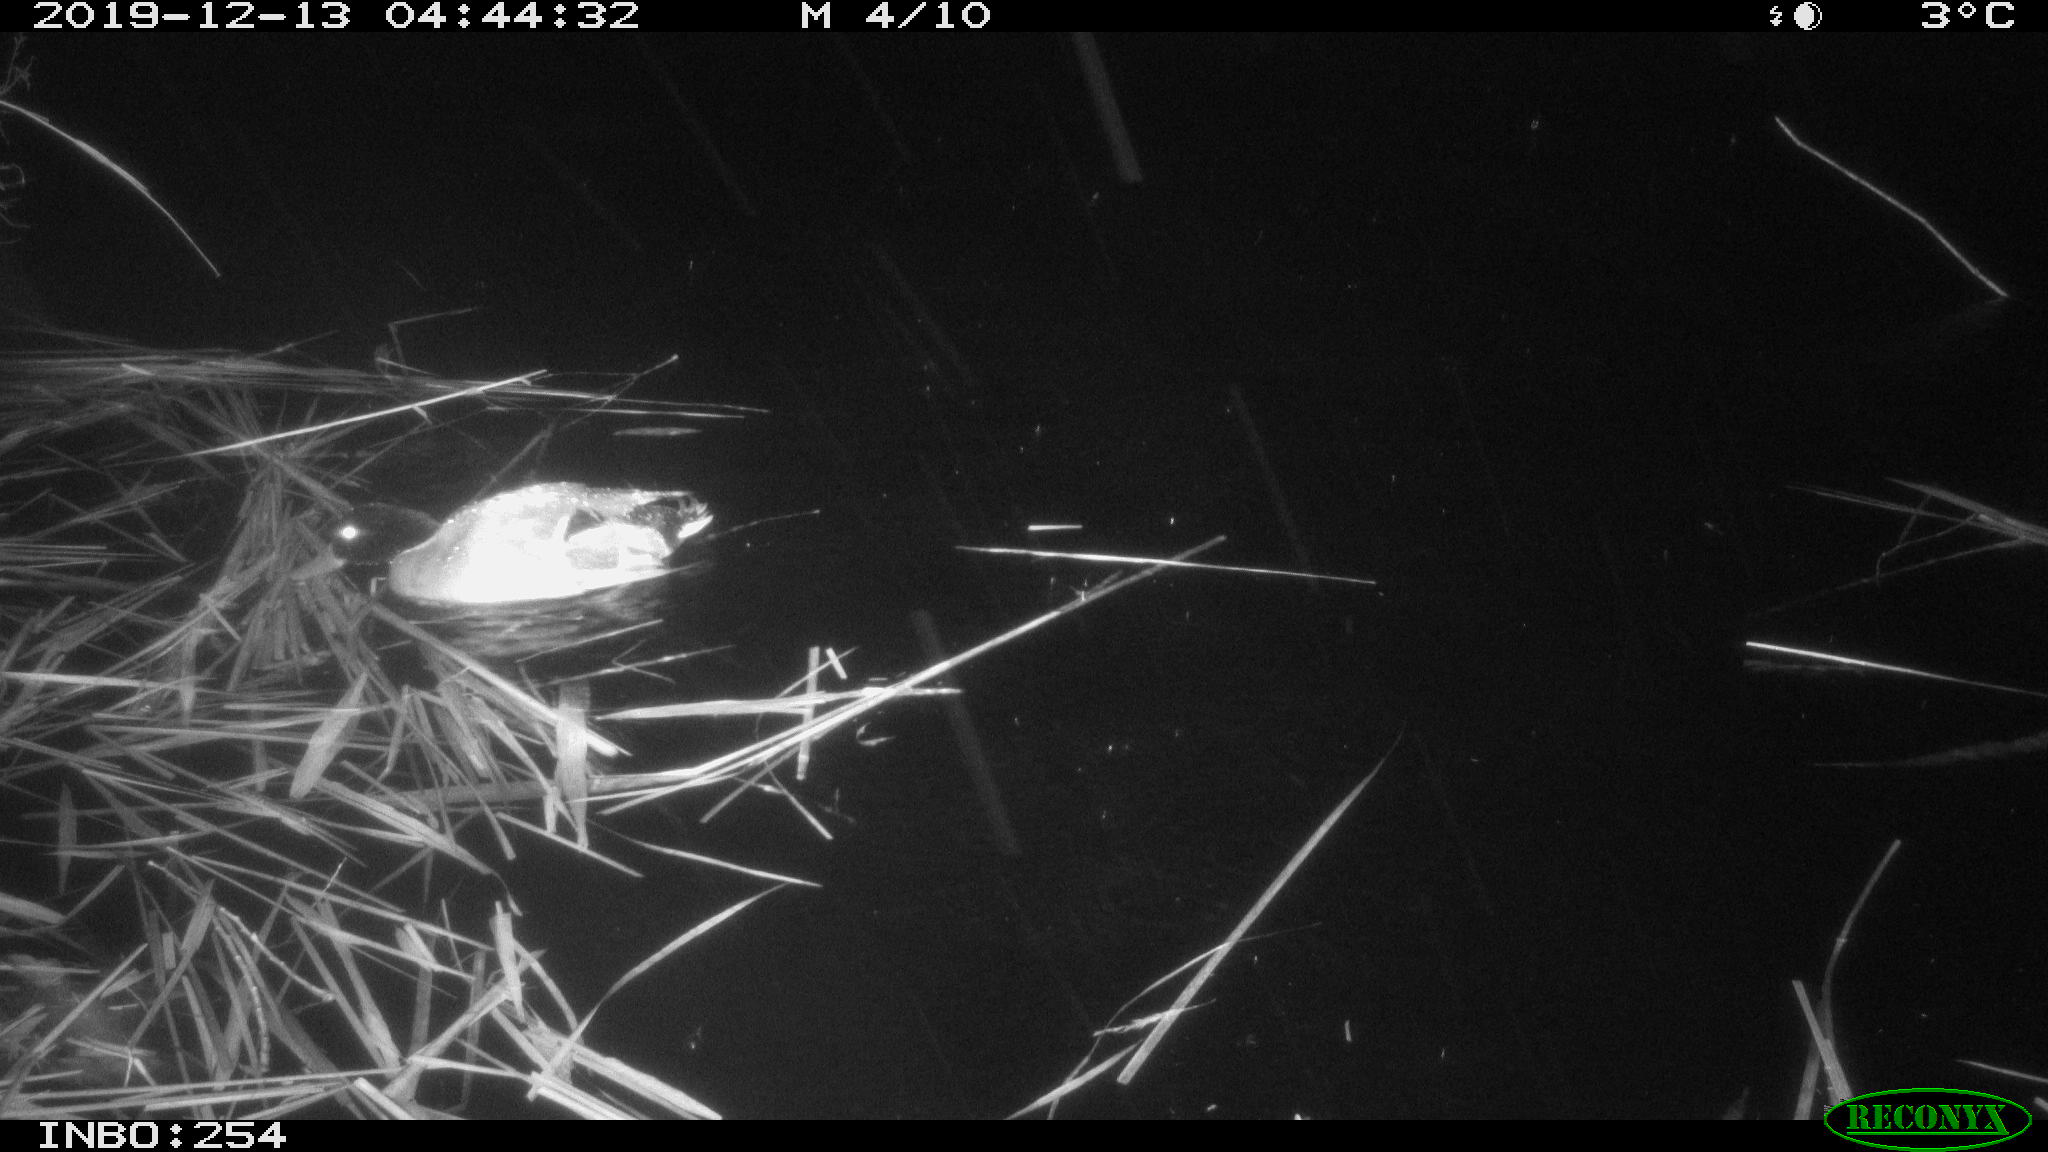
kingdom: Animalia
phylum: Chordata
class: Aves
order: Anseriformes
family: Anatidae
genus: Anas
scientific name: Anas platyrhynchos
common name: Mallard
